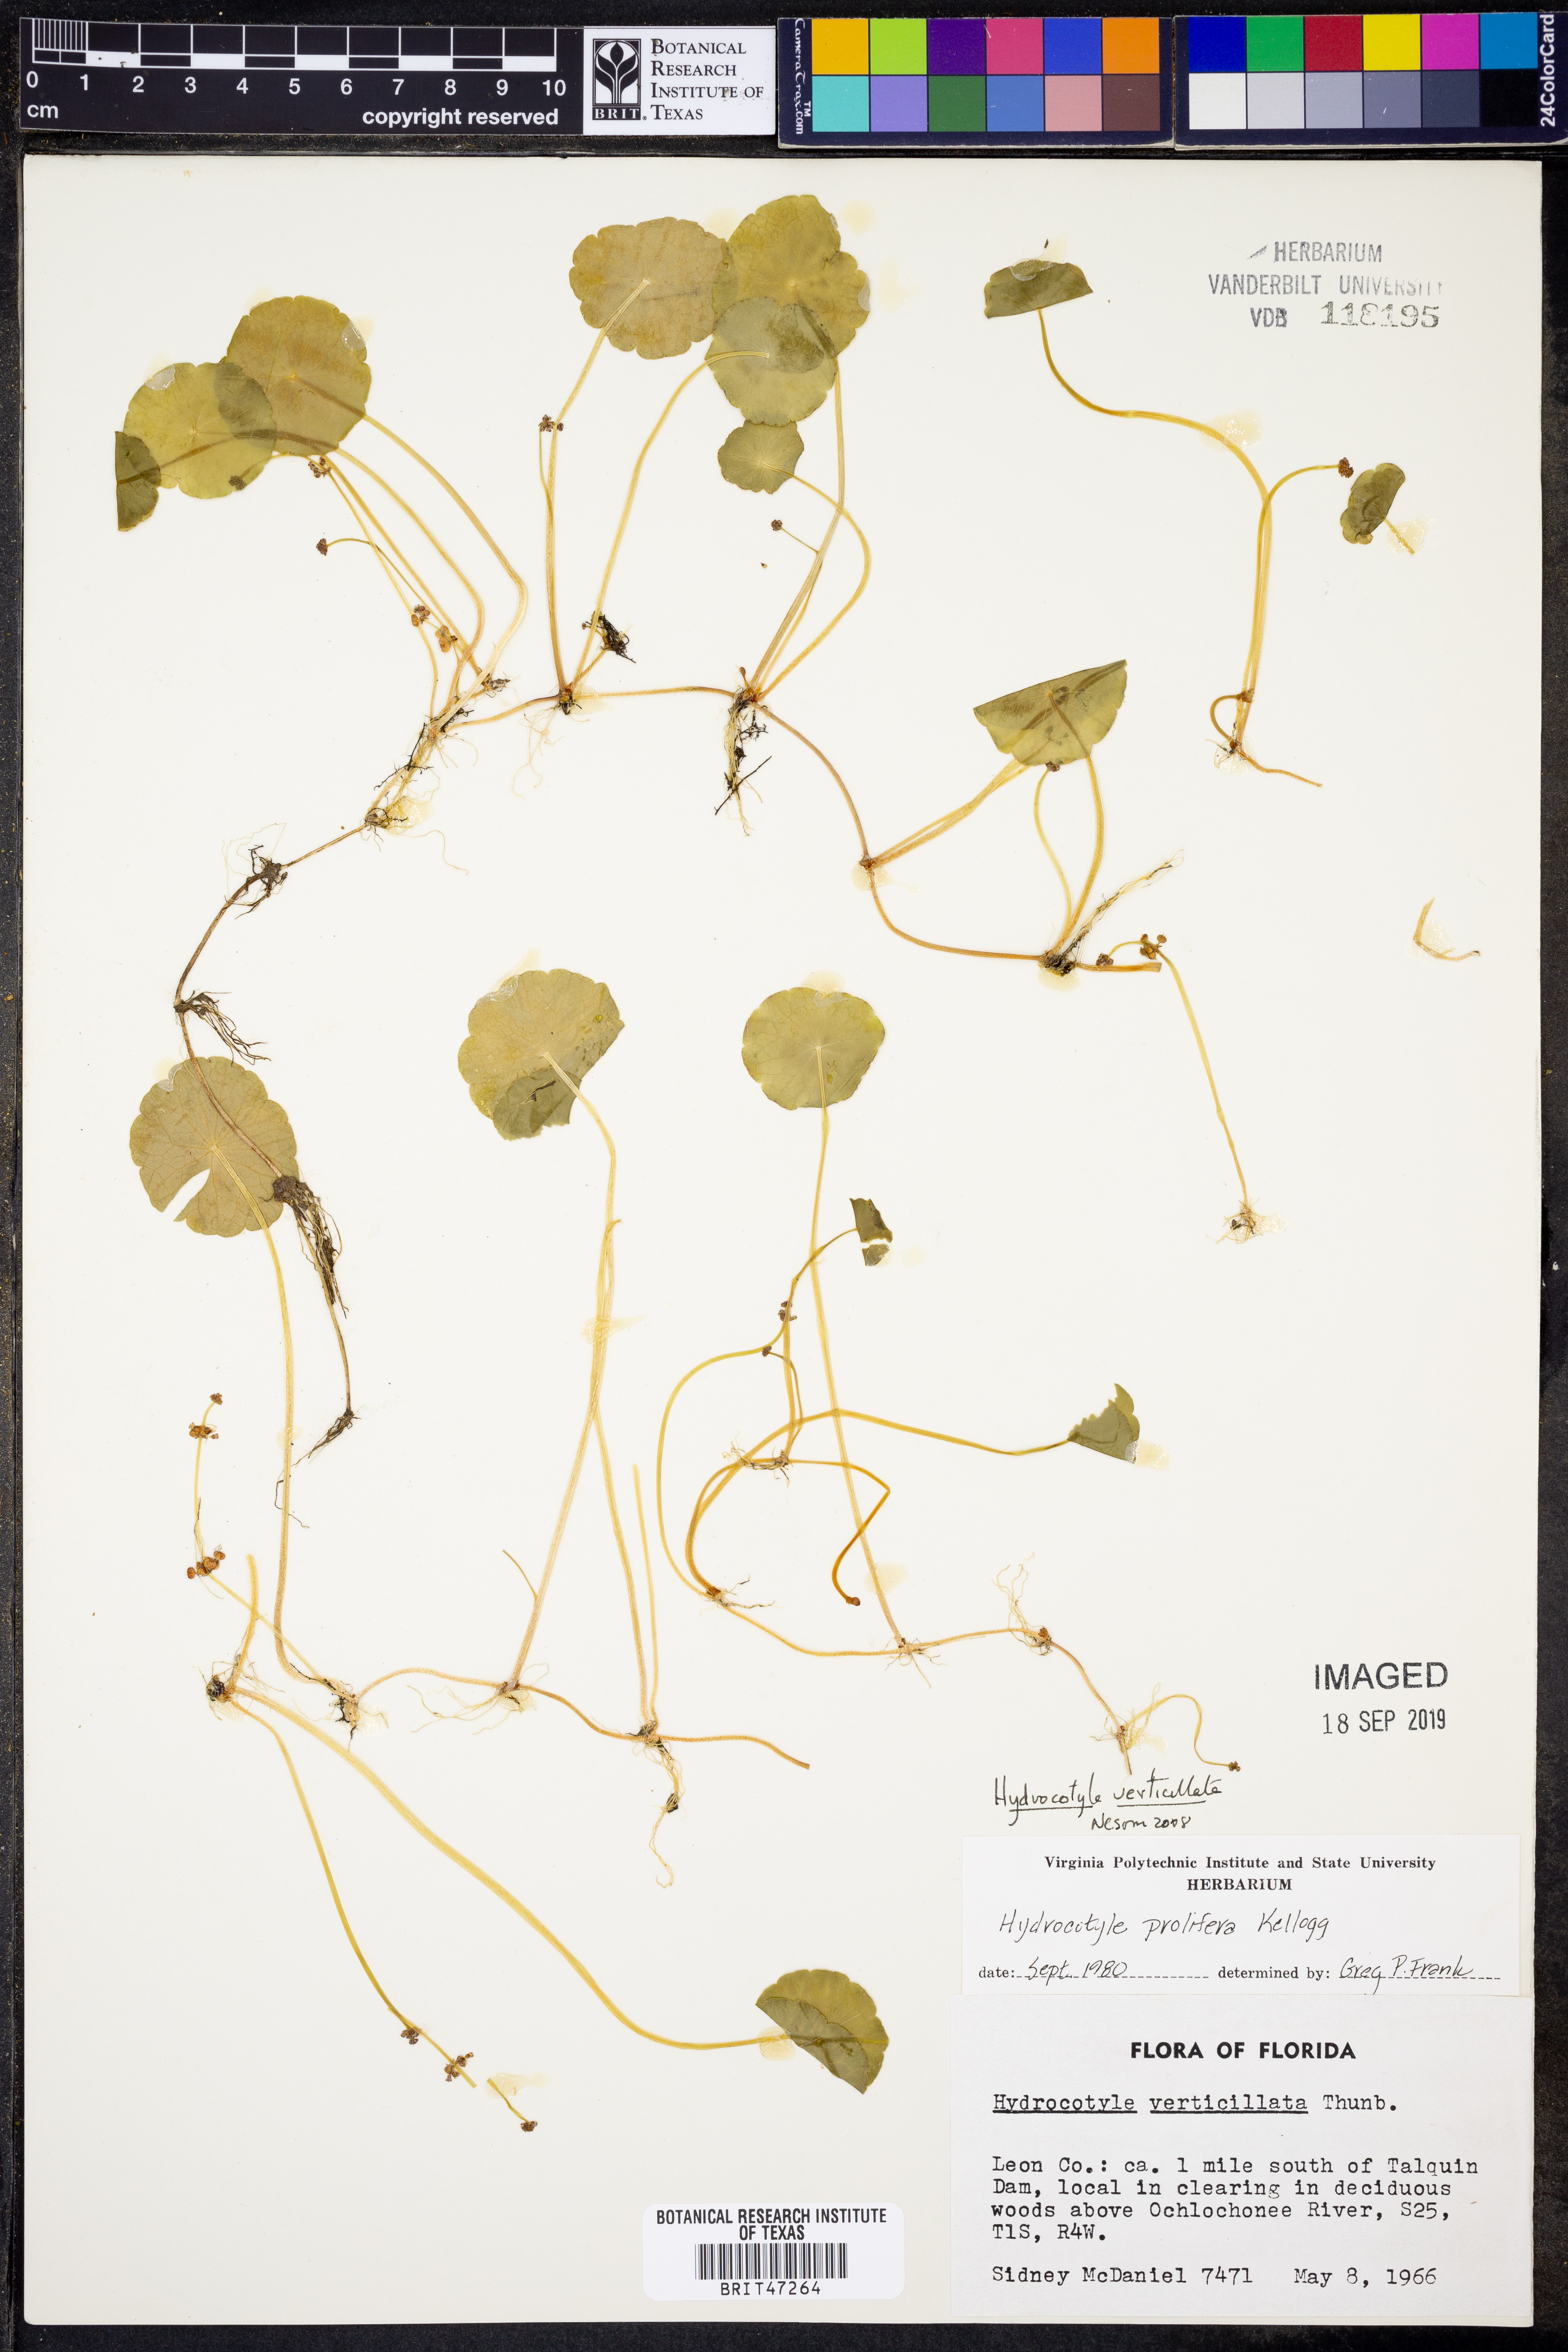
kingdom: Plantae
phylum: Tracheophyta
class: Magnoliopsida
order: Apiales
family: Araliaceae
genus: Hydrocotyle
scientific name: Hydrocotyle verticillata
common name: Whorled marshpennywort
